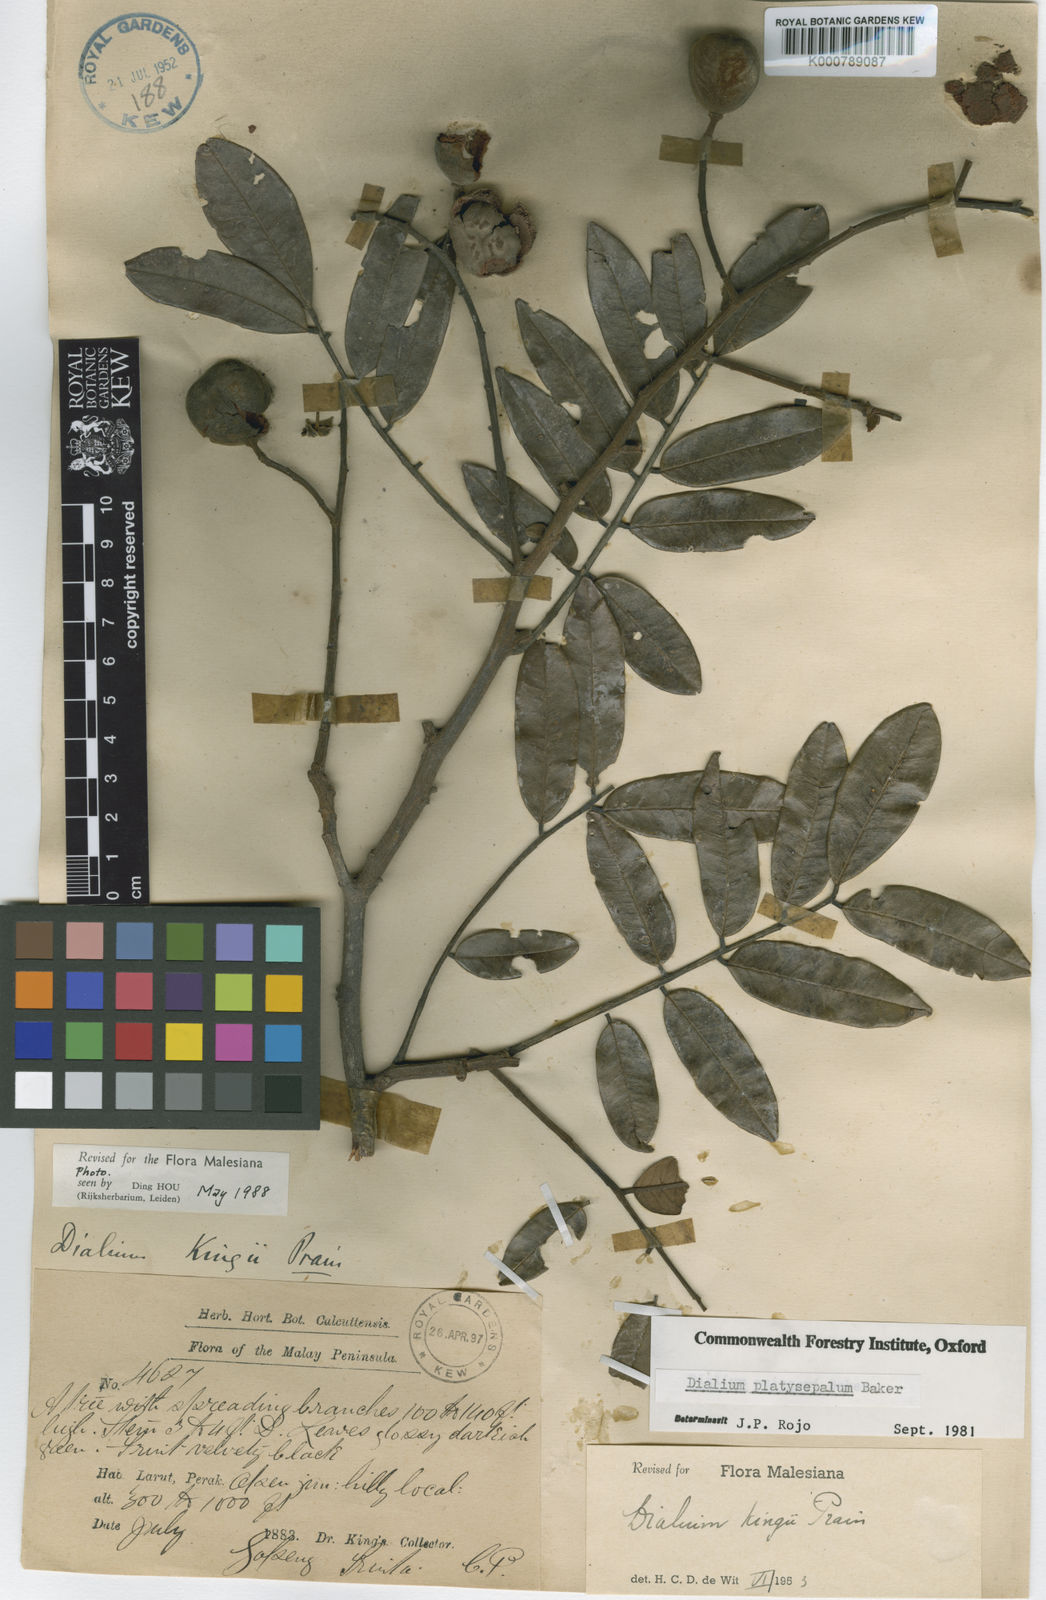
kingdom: Plantae
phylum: Tracheophyta
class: Magnoliopsida
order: Fabales
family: Fabaceae
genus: Dialium
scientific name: Dialium platysepalum
